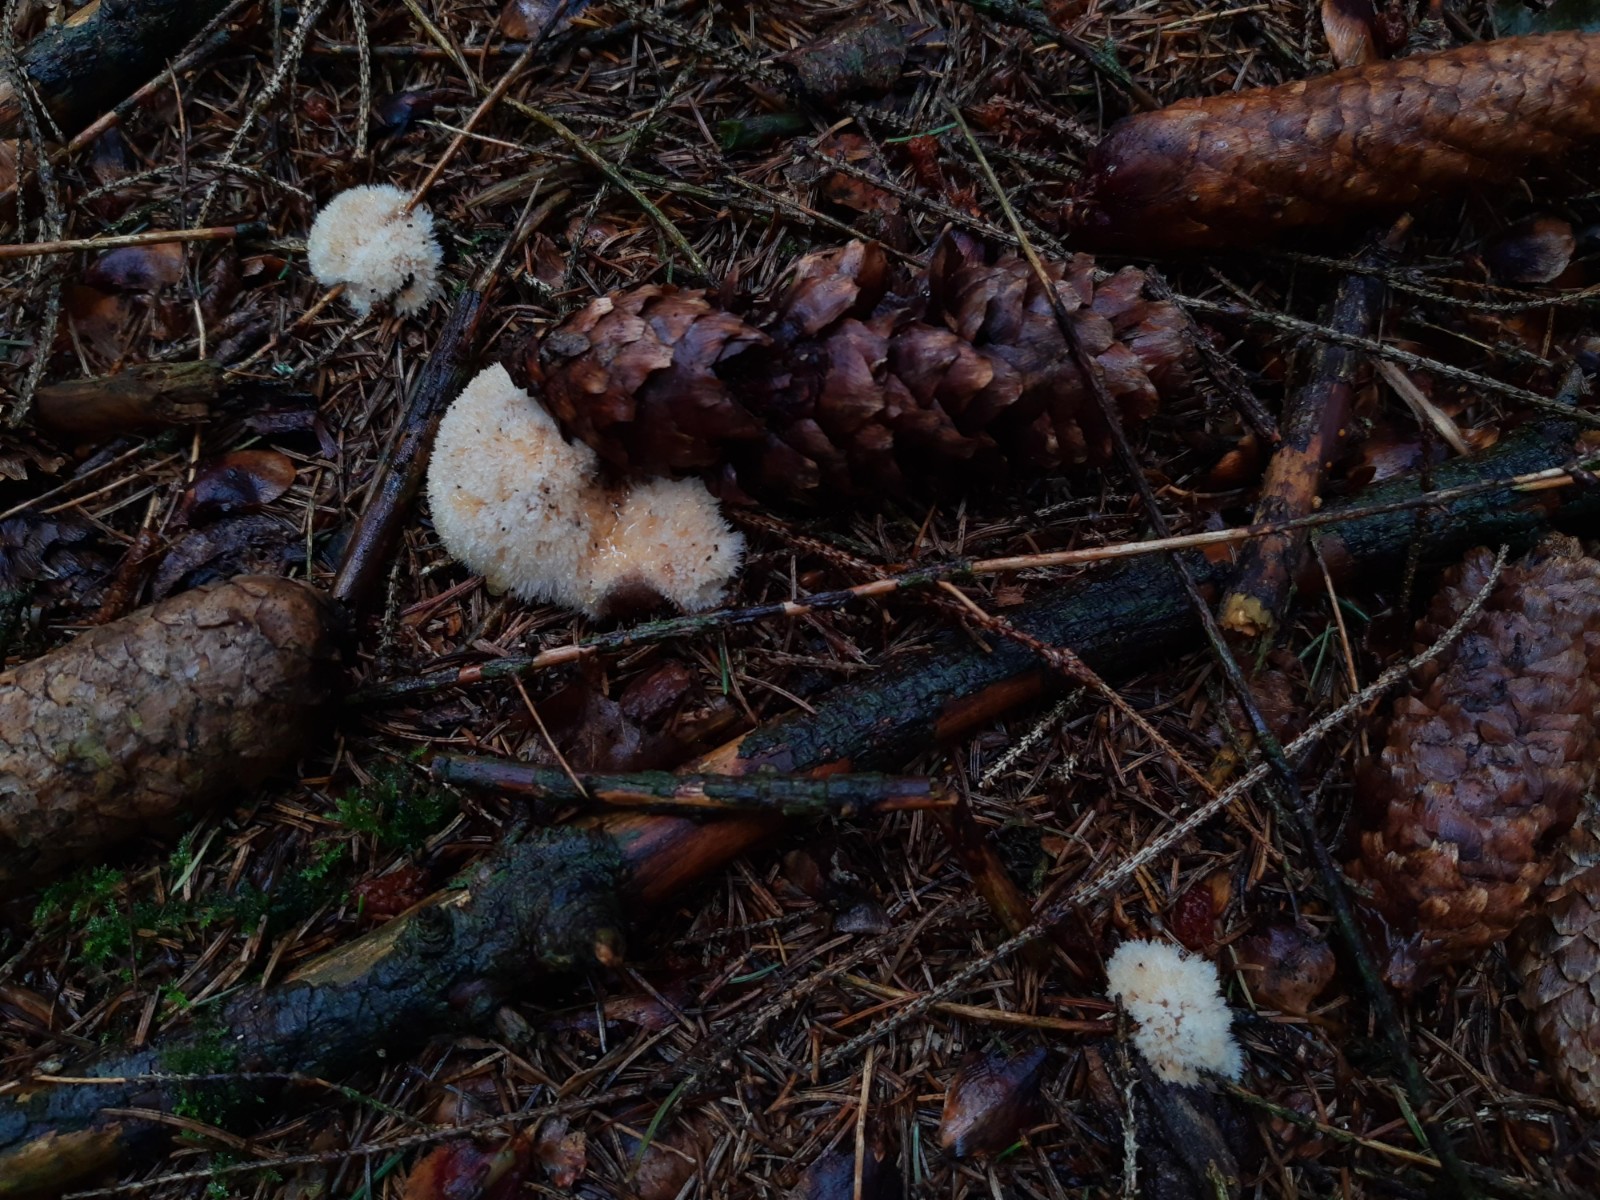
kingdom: Fungi
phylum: Basidiomycota
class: Agaricomycetes
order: Polyporales
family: Dacryobolaceae
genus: Postia
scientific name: Postia ptychogaster
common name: støvende kødporesvamp
